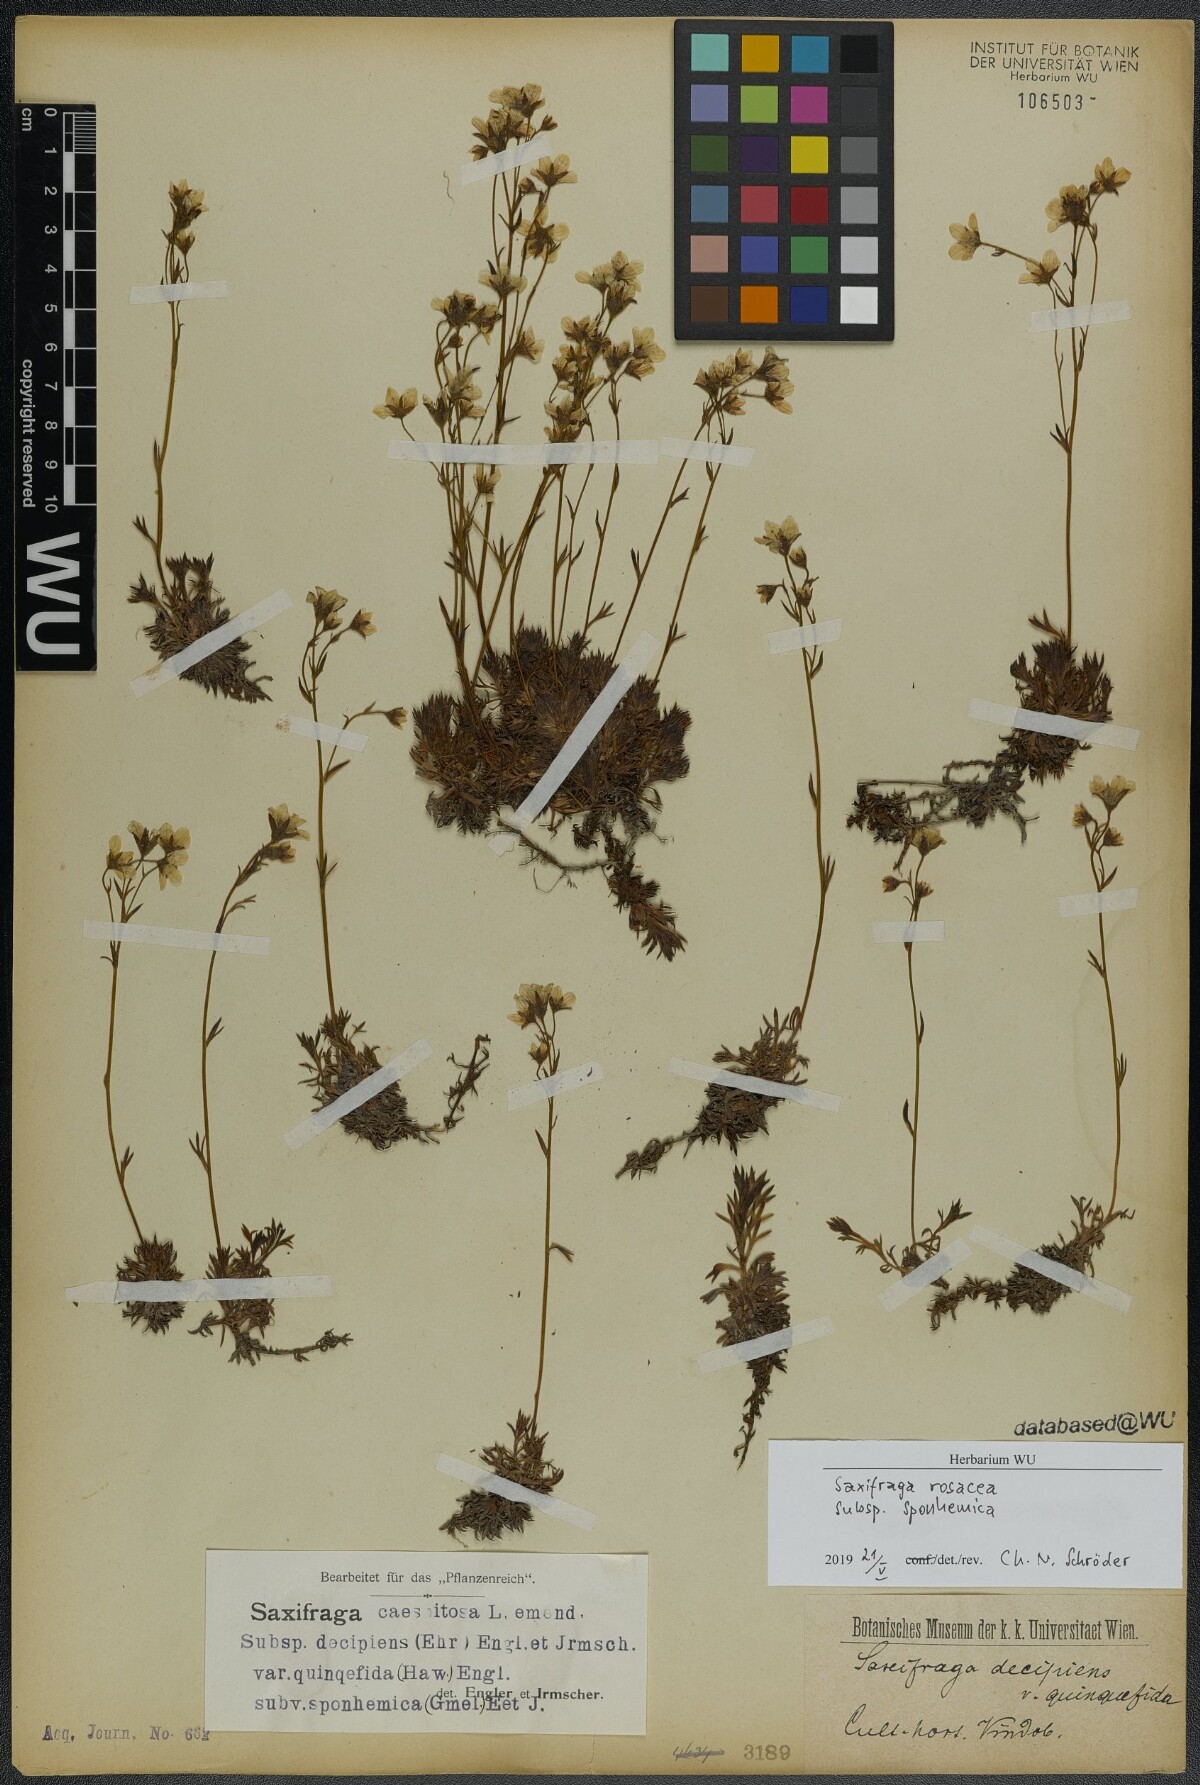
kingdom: Plantae
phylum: Tracheophyta
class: Magnoliopsida
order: Saxifragales
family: Saxifragaceae
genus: Saxifraga
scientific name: Saxifraga rosacea
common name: Irish saxifrage
